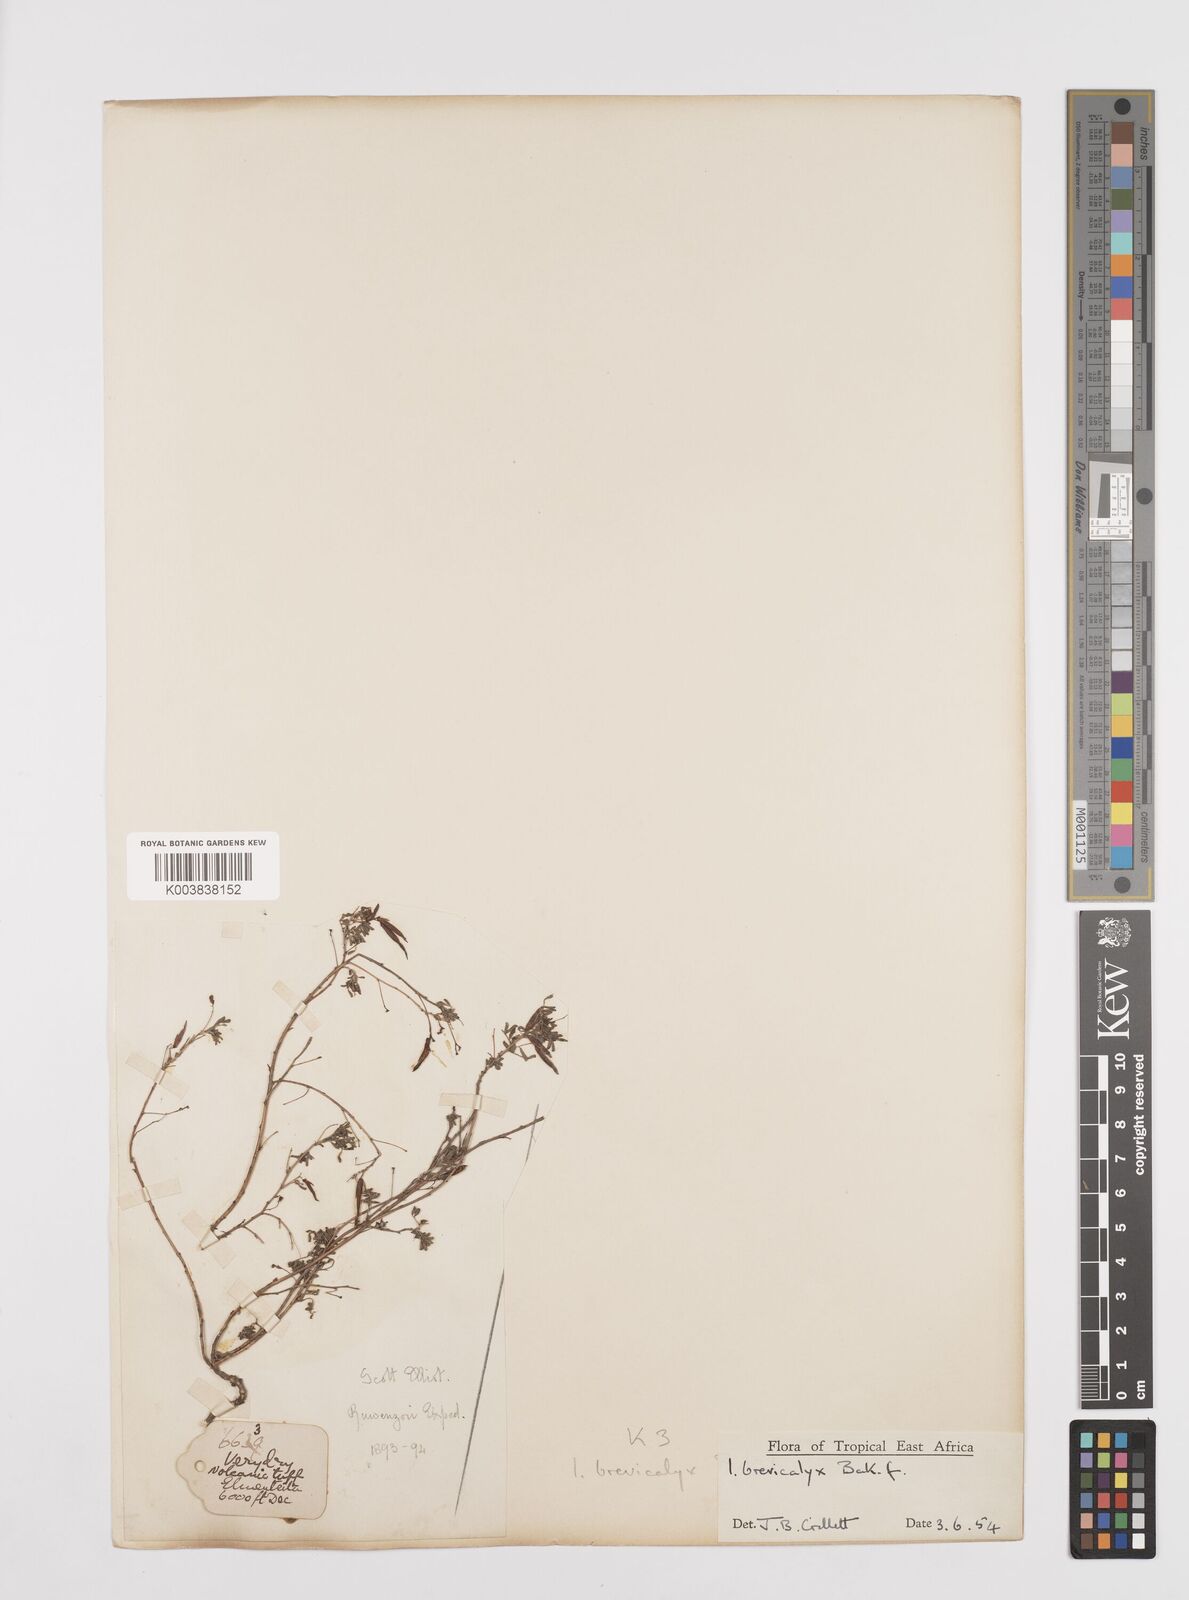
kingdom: Plantae
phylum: Tracheophyta
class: Magnoliopsida
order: Fabales
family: Fabaceae
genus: Indigofera
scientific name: Indigofera brevicalyx
